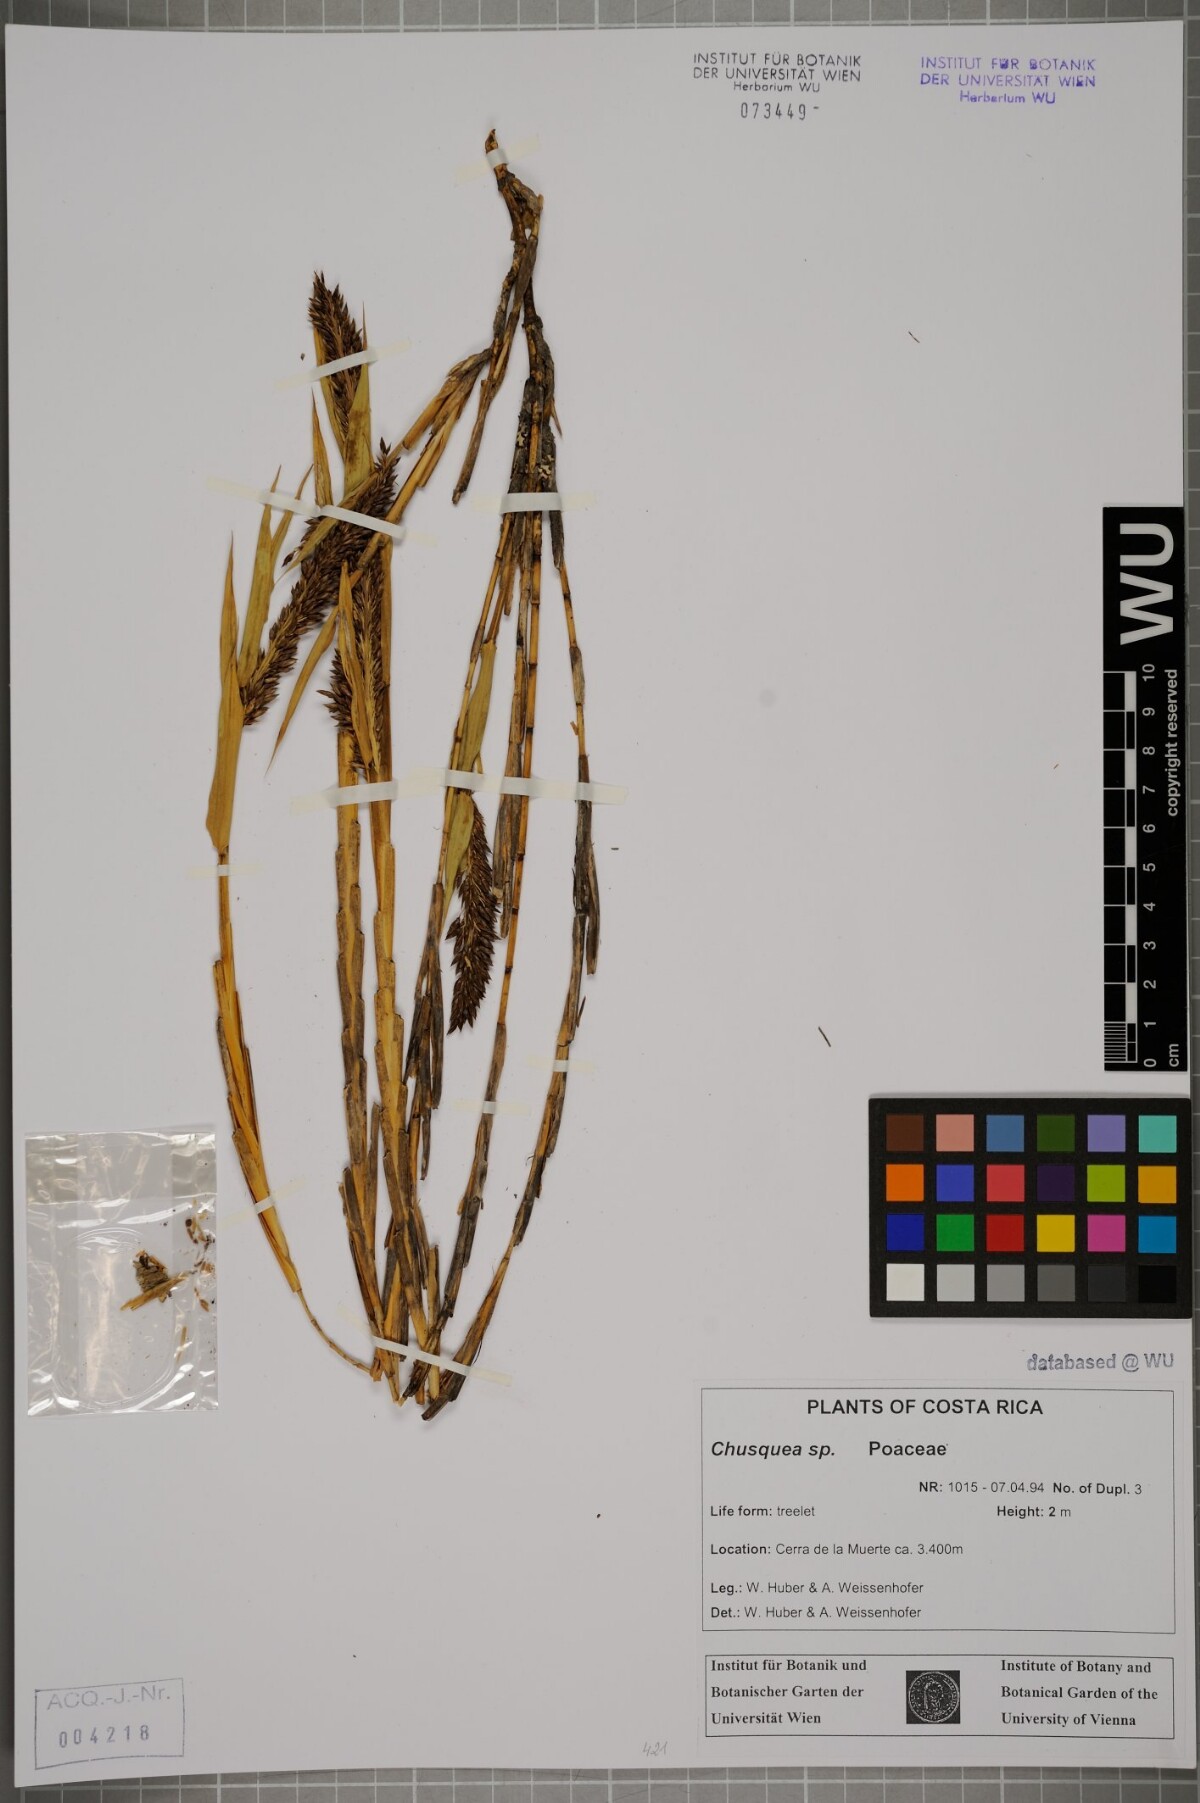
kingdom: Plantae
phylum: Tracheophyta
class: Liliopsida
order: Poales
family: Poaceae
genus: Chusquea
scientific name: Chusquea
